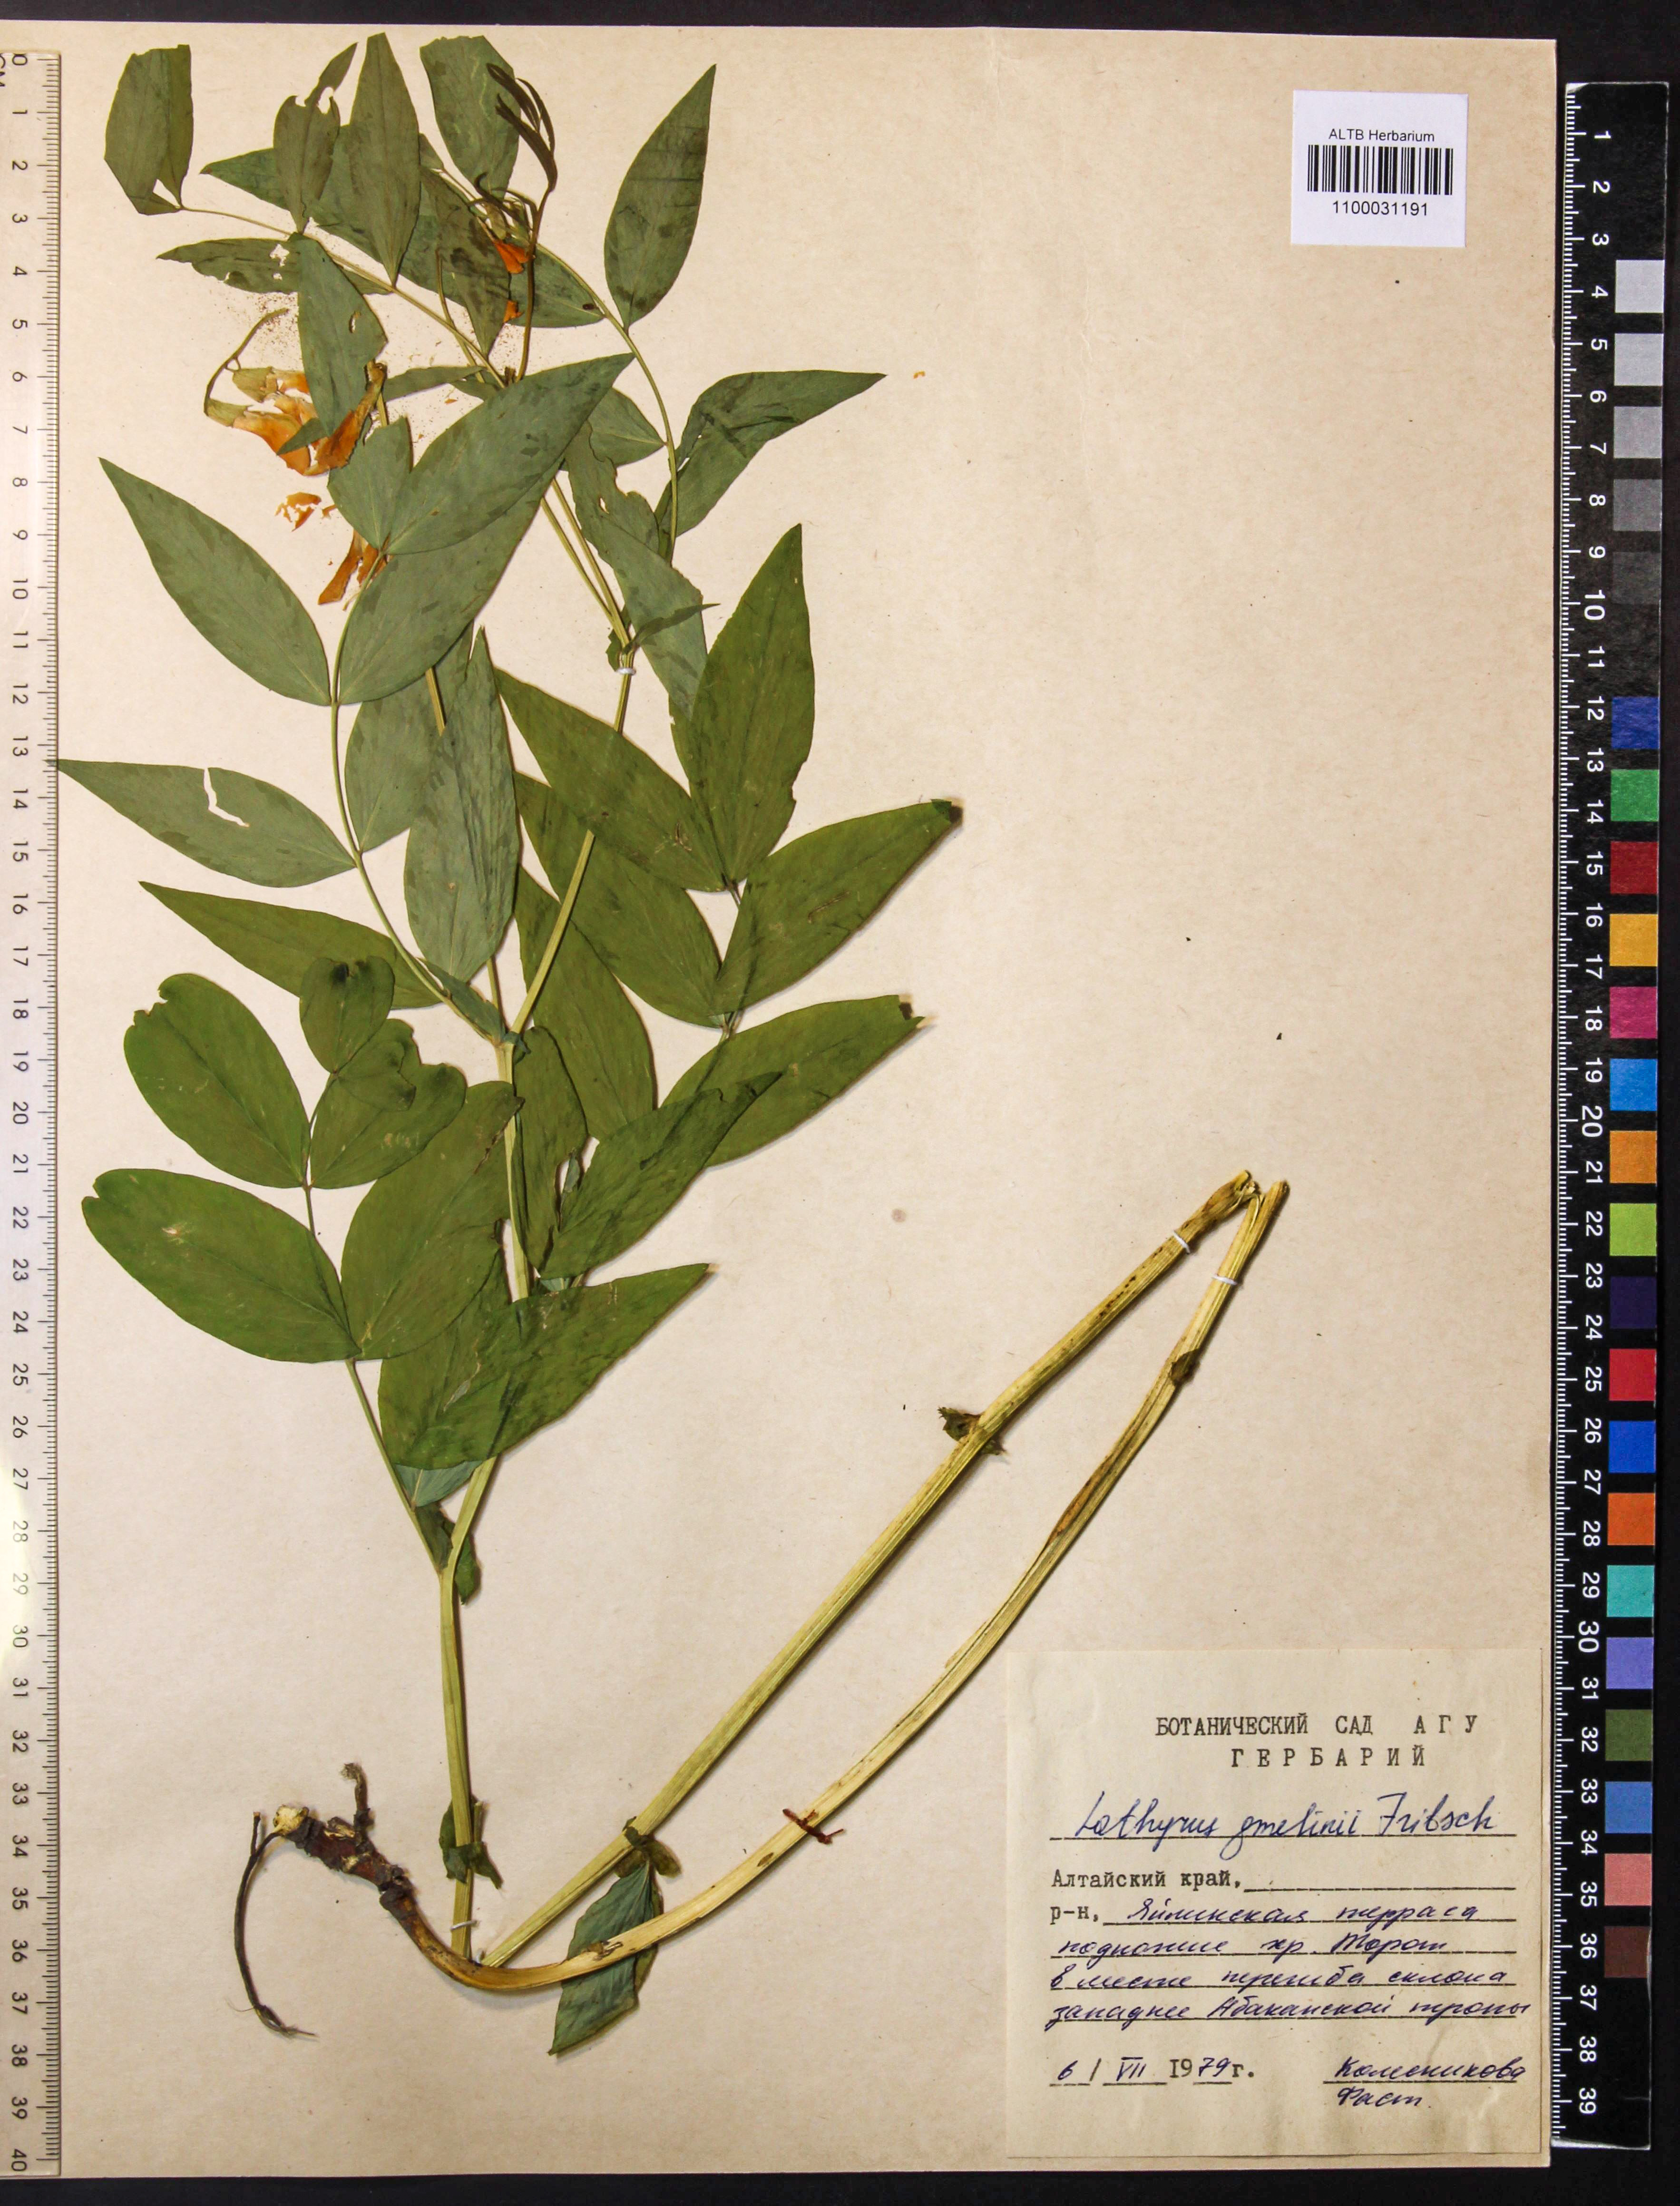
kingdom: Plantae
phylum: Tracheophyta
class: Magnoliopsida
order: Fabales
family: Fabaceae
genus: Lathyrus
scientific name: Lathyrus gmelinii
